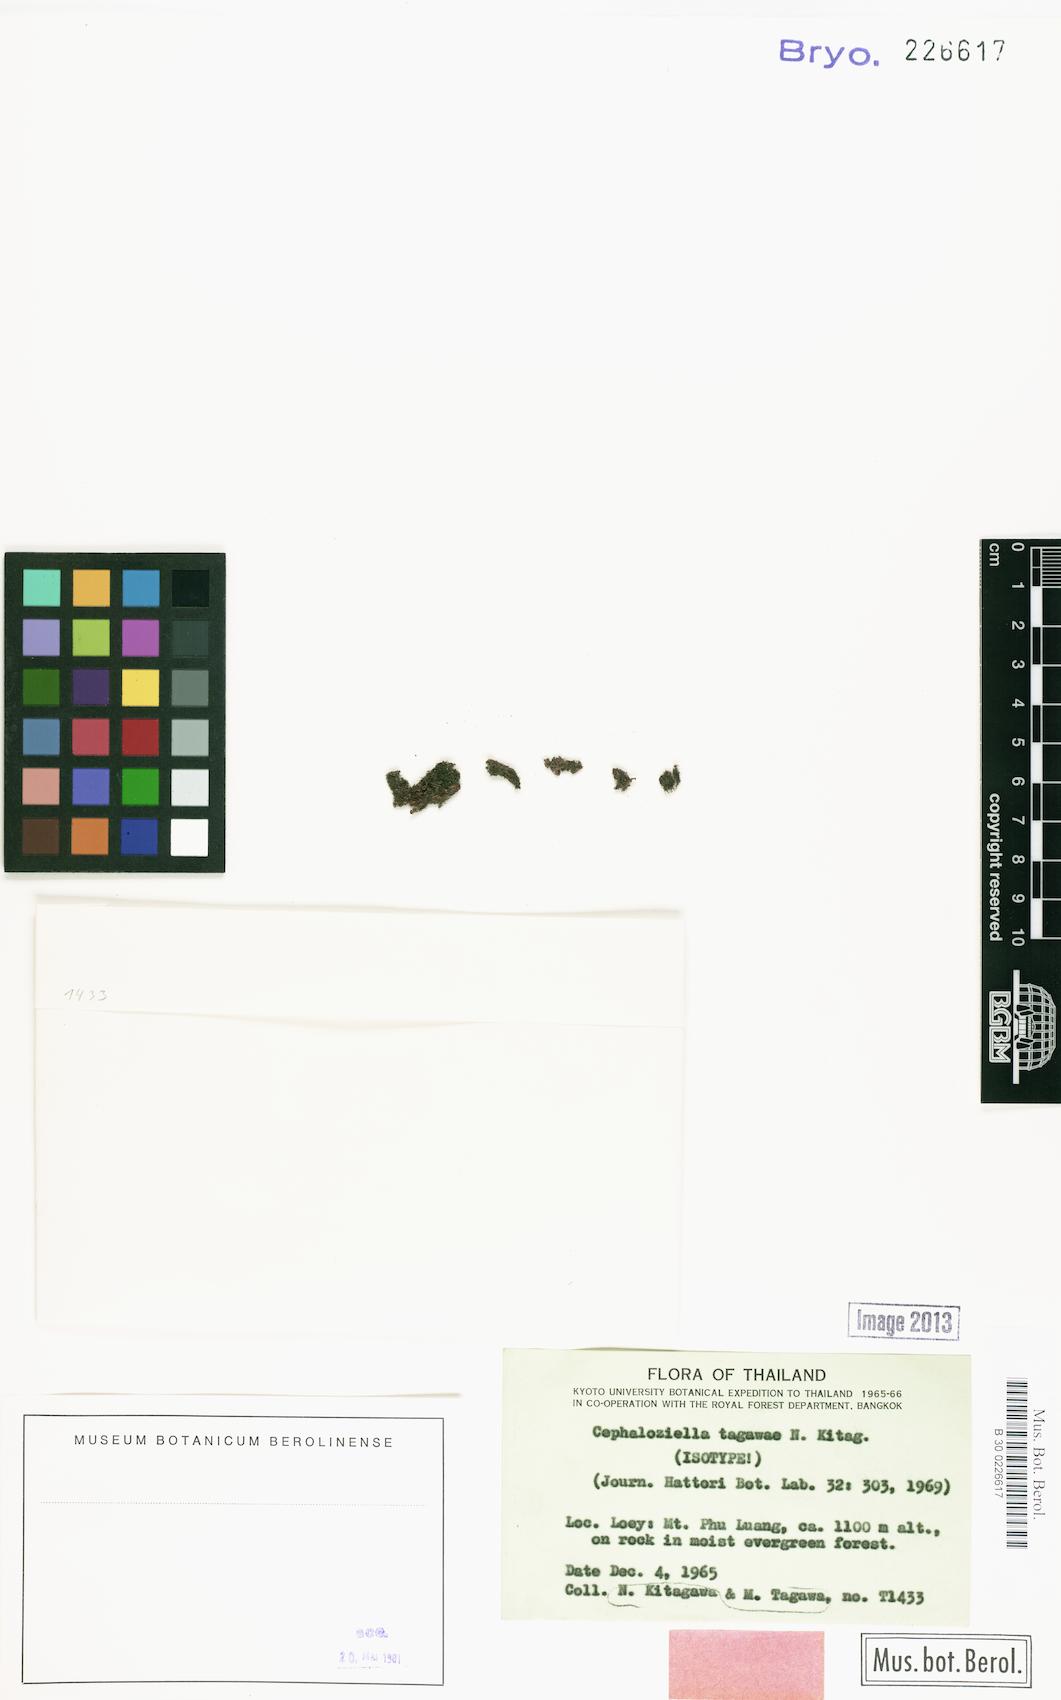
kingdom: Plantae
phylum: Marchantiophyta
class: Jungermanniopsida
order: Jungermanniales
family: Cephaloziellaceae
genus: Cylindrocolea
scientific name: Cylindrocolea tagawae
